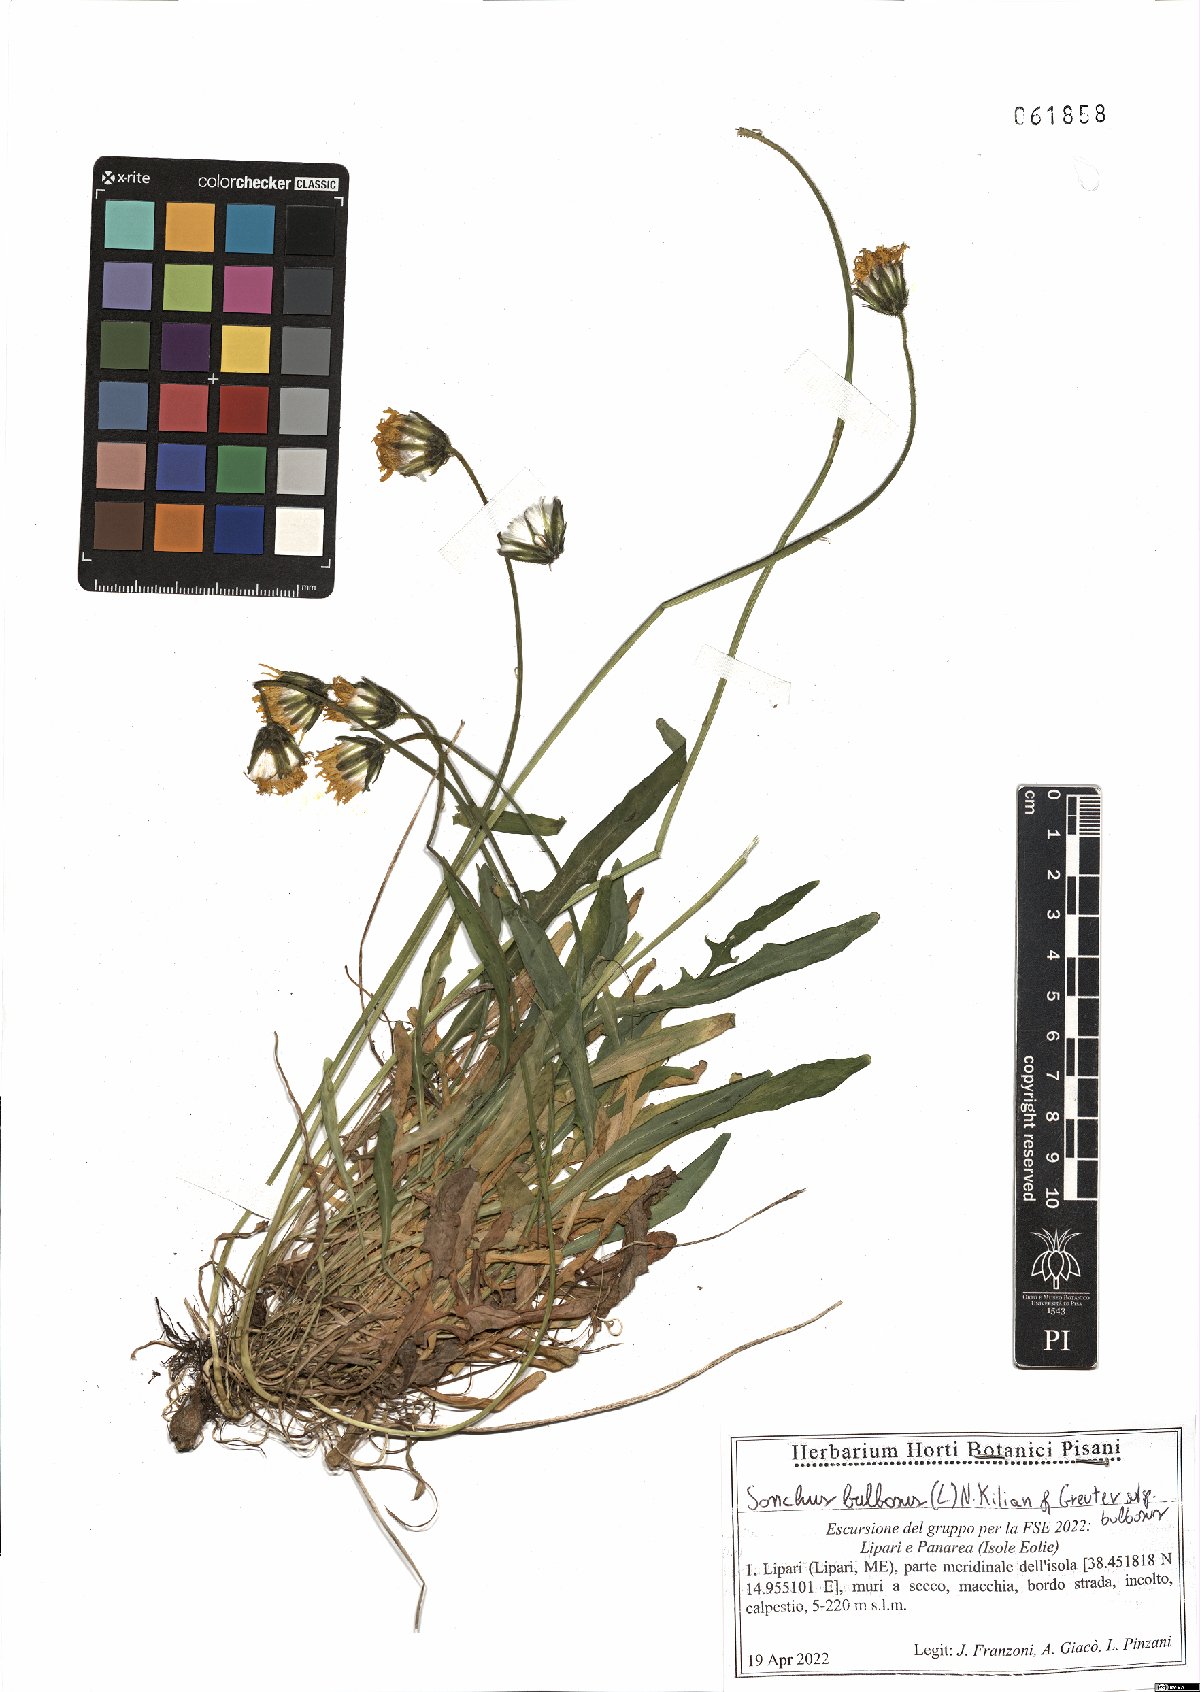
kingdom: Plantae
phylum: Tracheophyta
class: Magnoliopsida
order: Asterales
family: Asteraceae
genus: Aetheorhiza
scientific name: Aetheorhiza bulbosa
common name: Tuberous hawk's-beard
